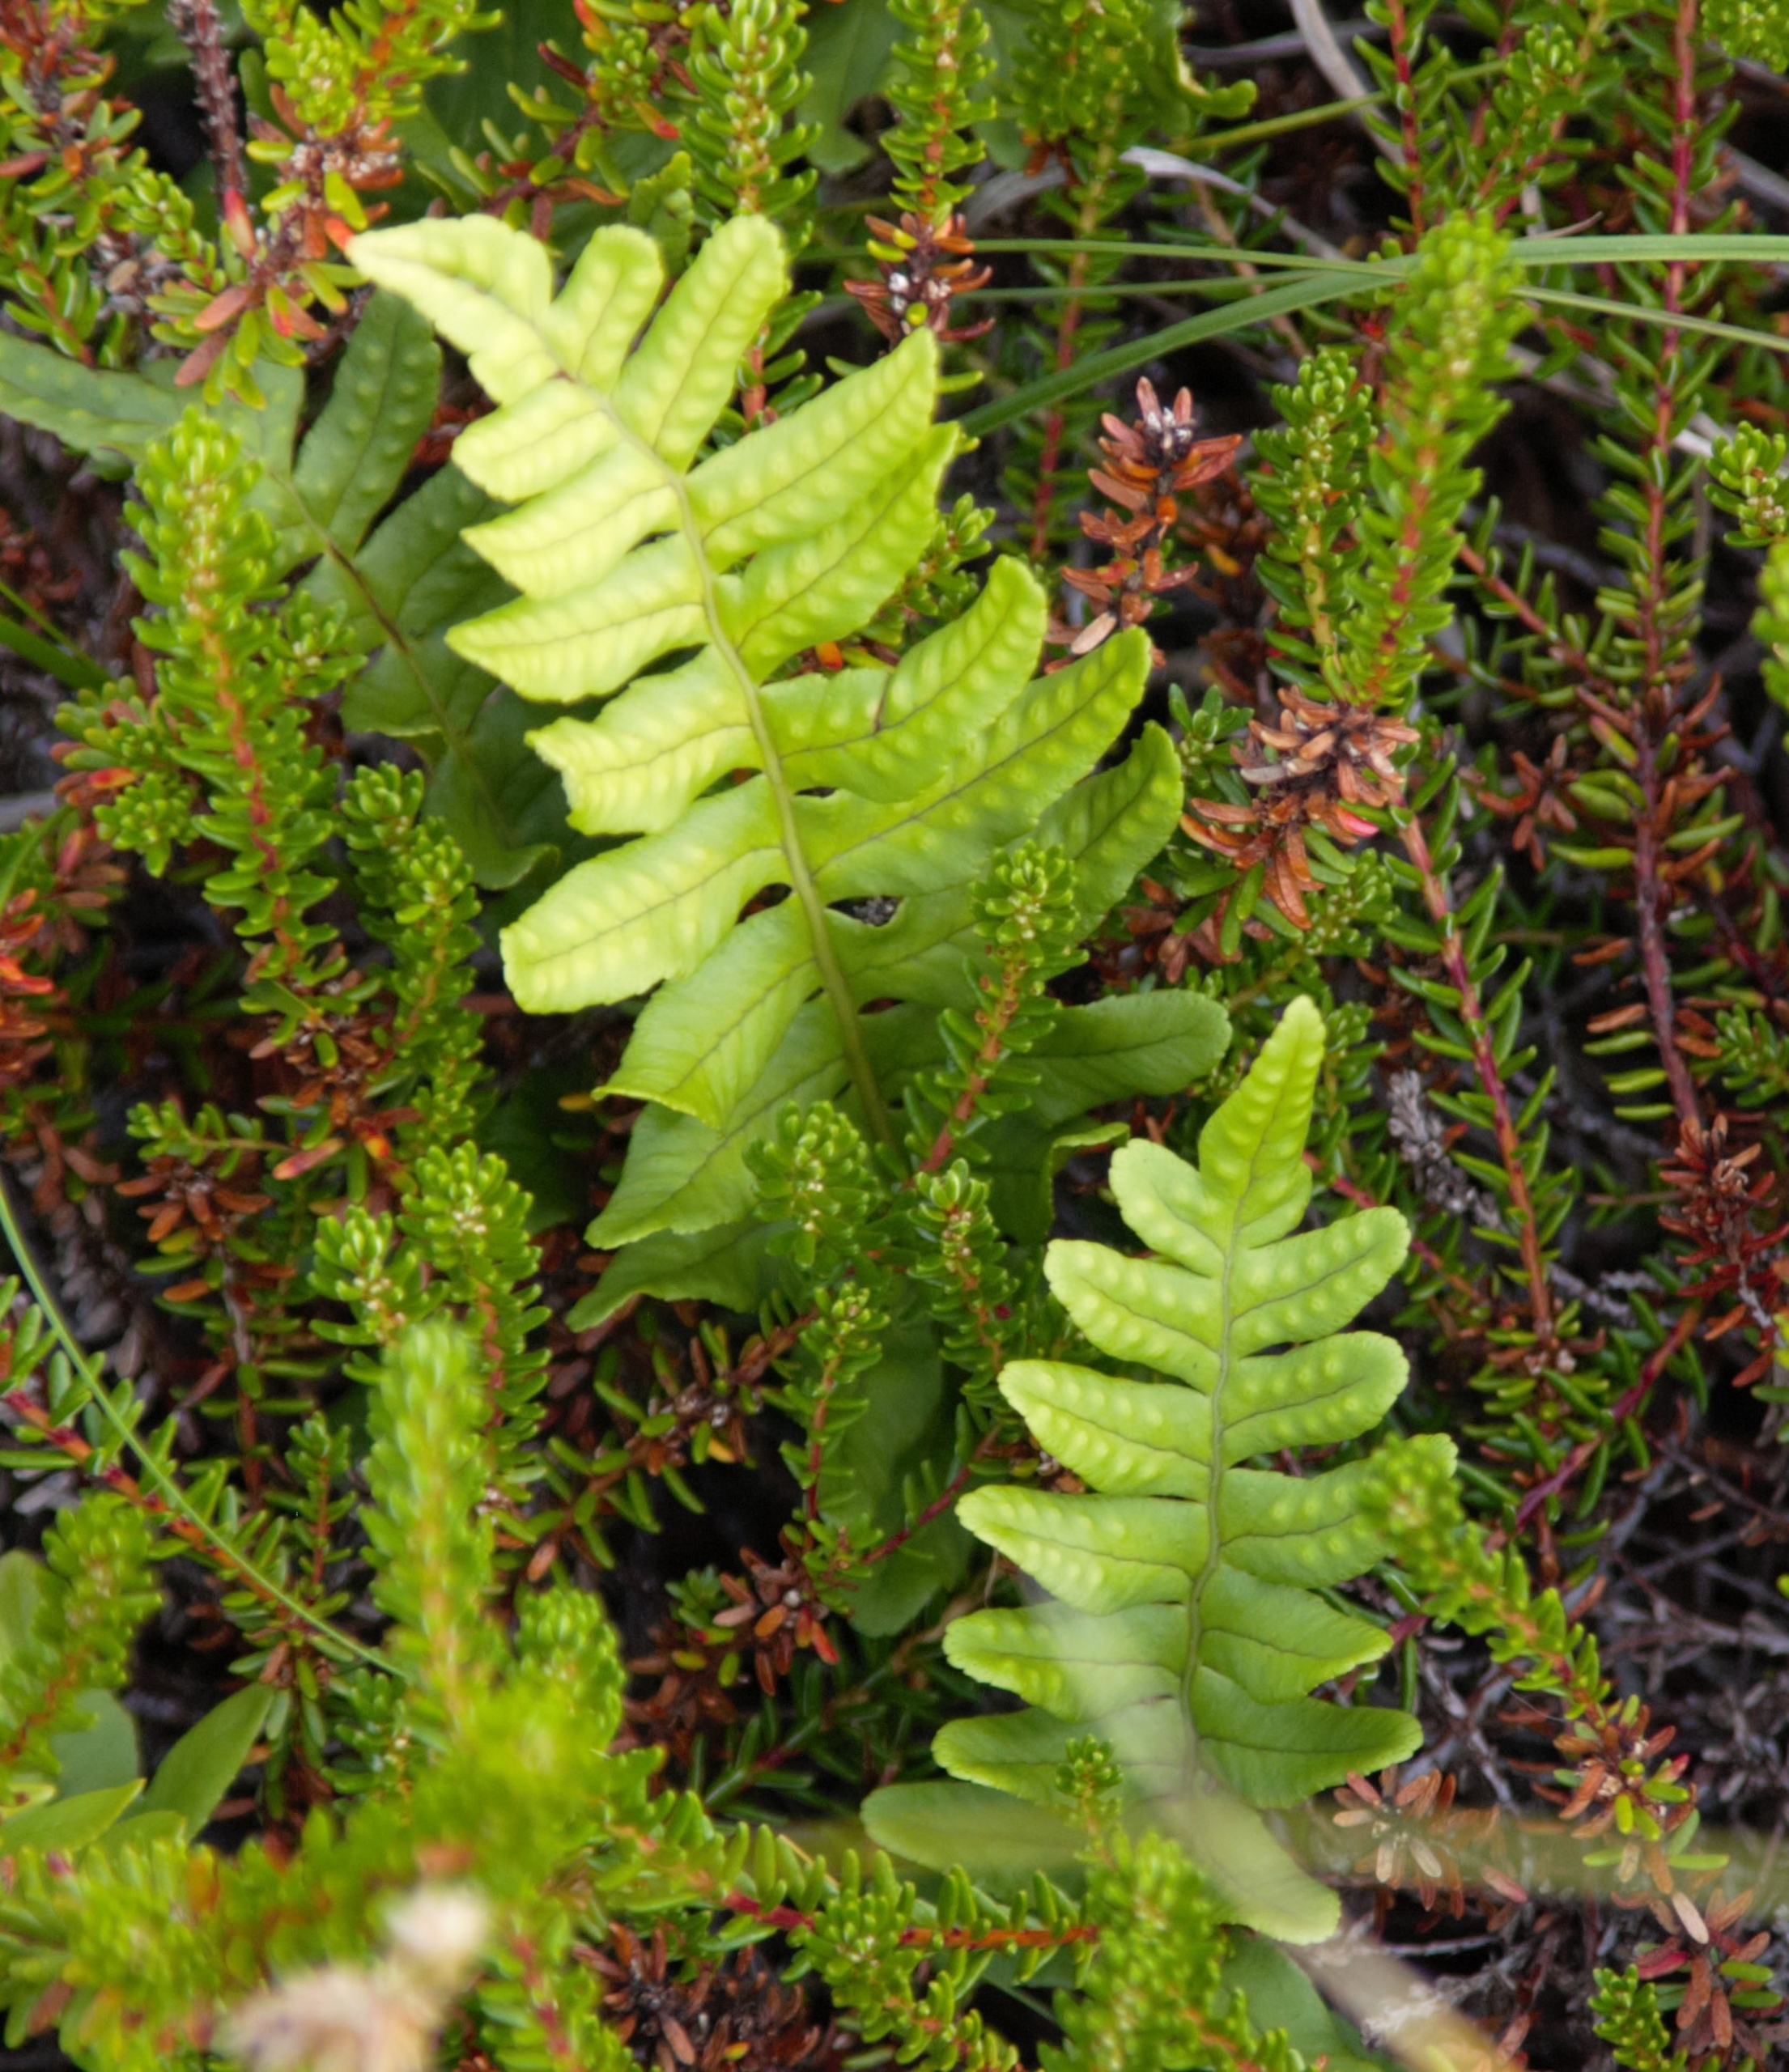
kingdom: Plantae
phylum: Tracheophyta
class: Polypodiopsida
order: Polypodiales
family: Polypodiaceae
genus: Polypodium
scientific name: Polypodium vulgare
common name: Almindelig engelsød
